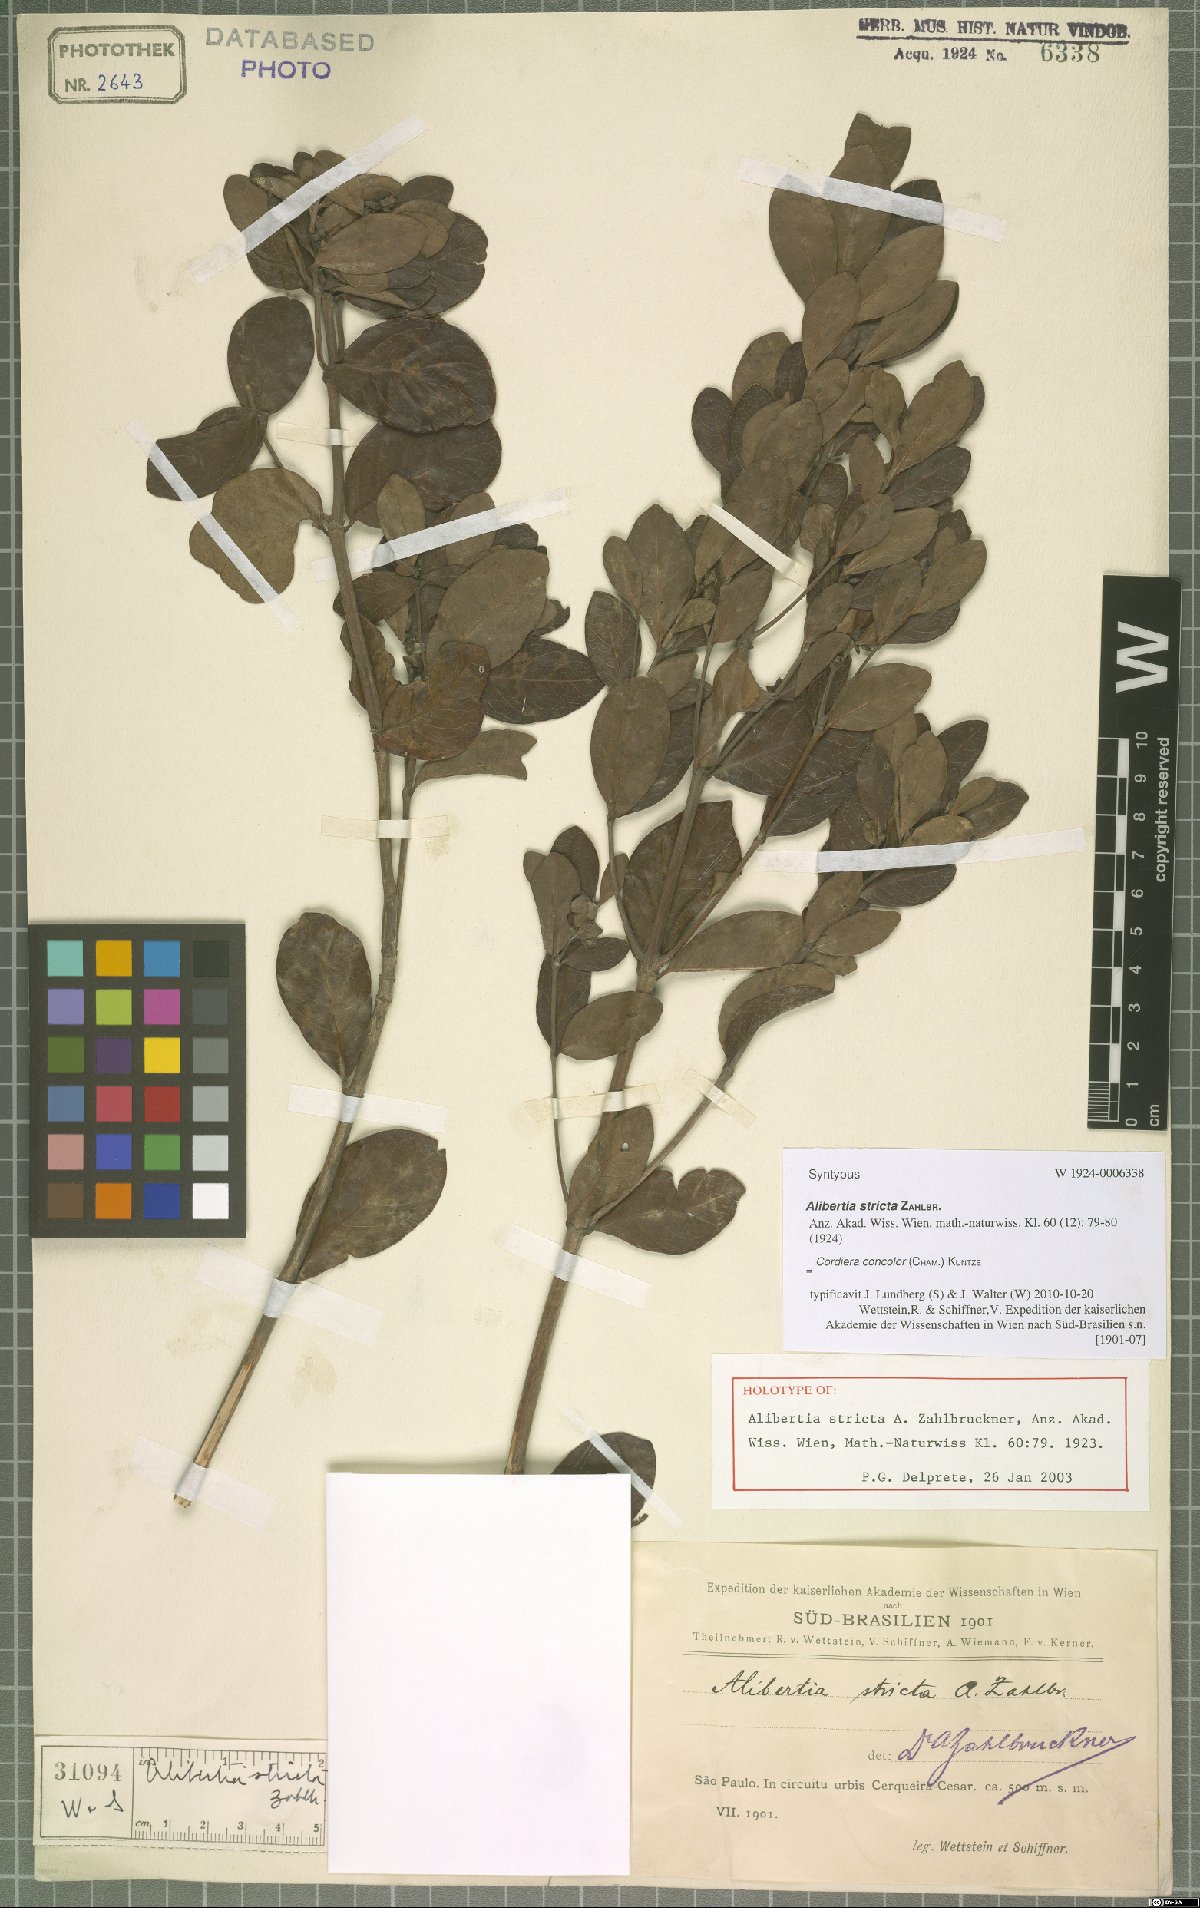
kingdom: Plantae
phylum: Tracheophyta
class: Magnoliopsida
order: Gentianales
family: Rubiaceae
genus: Cordiera
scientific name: Cordiera concolor
